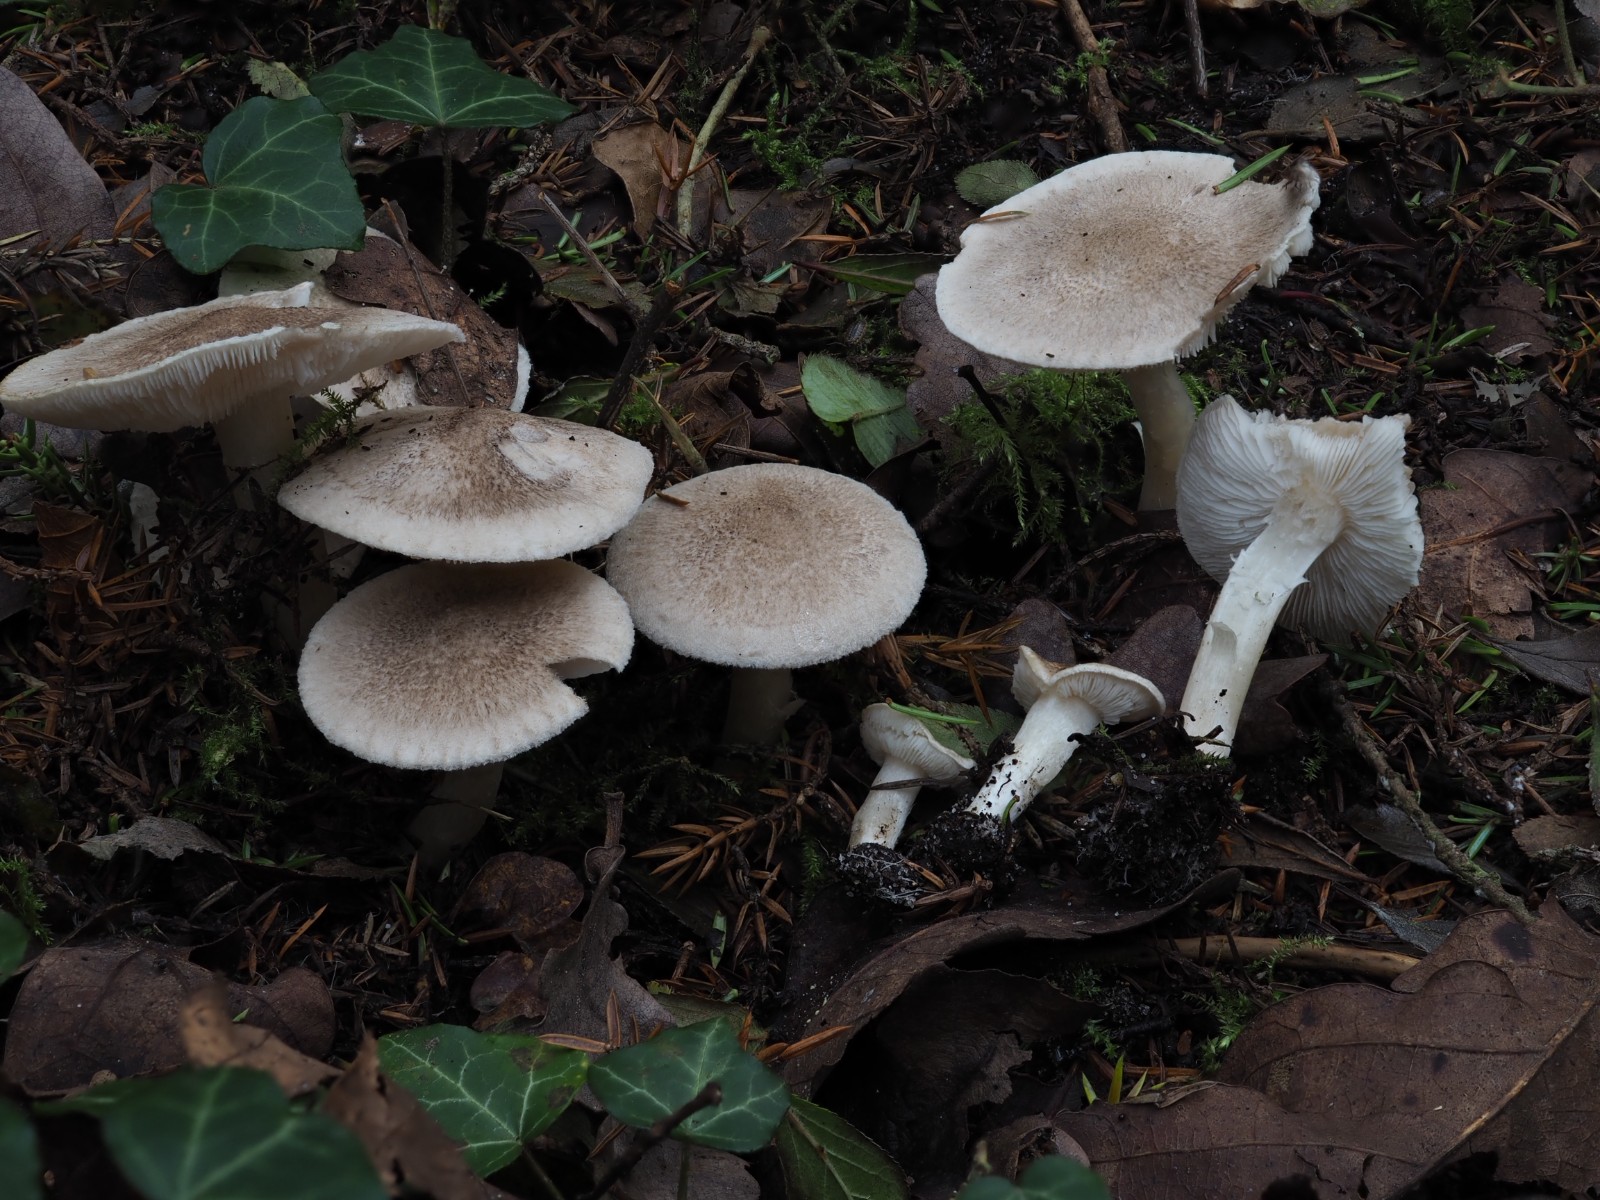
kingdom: Fungi
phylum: Basidiomycota
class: Agaricomycetes
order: Agaricales
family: Tricholomataceae
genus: Tricholoma
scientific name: Tricholoma
